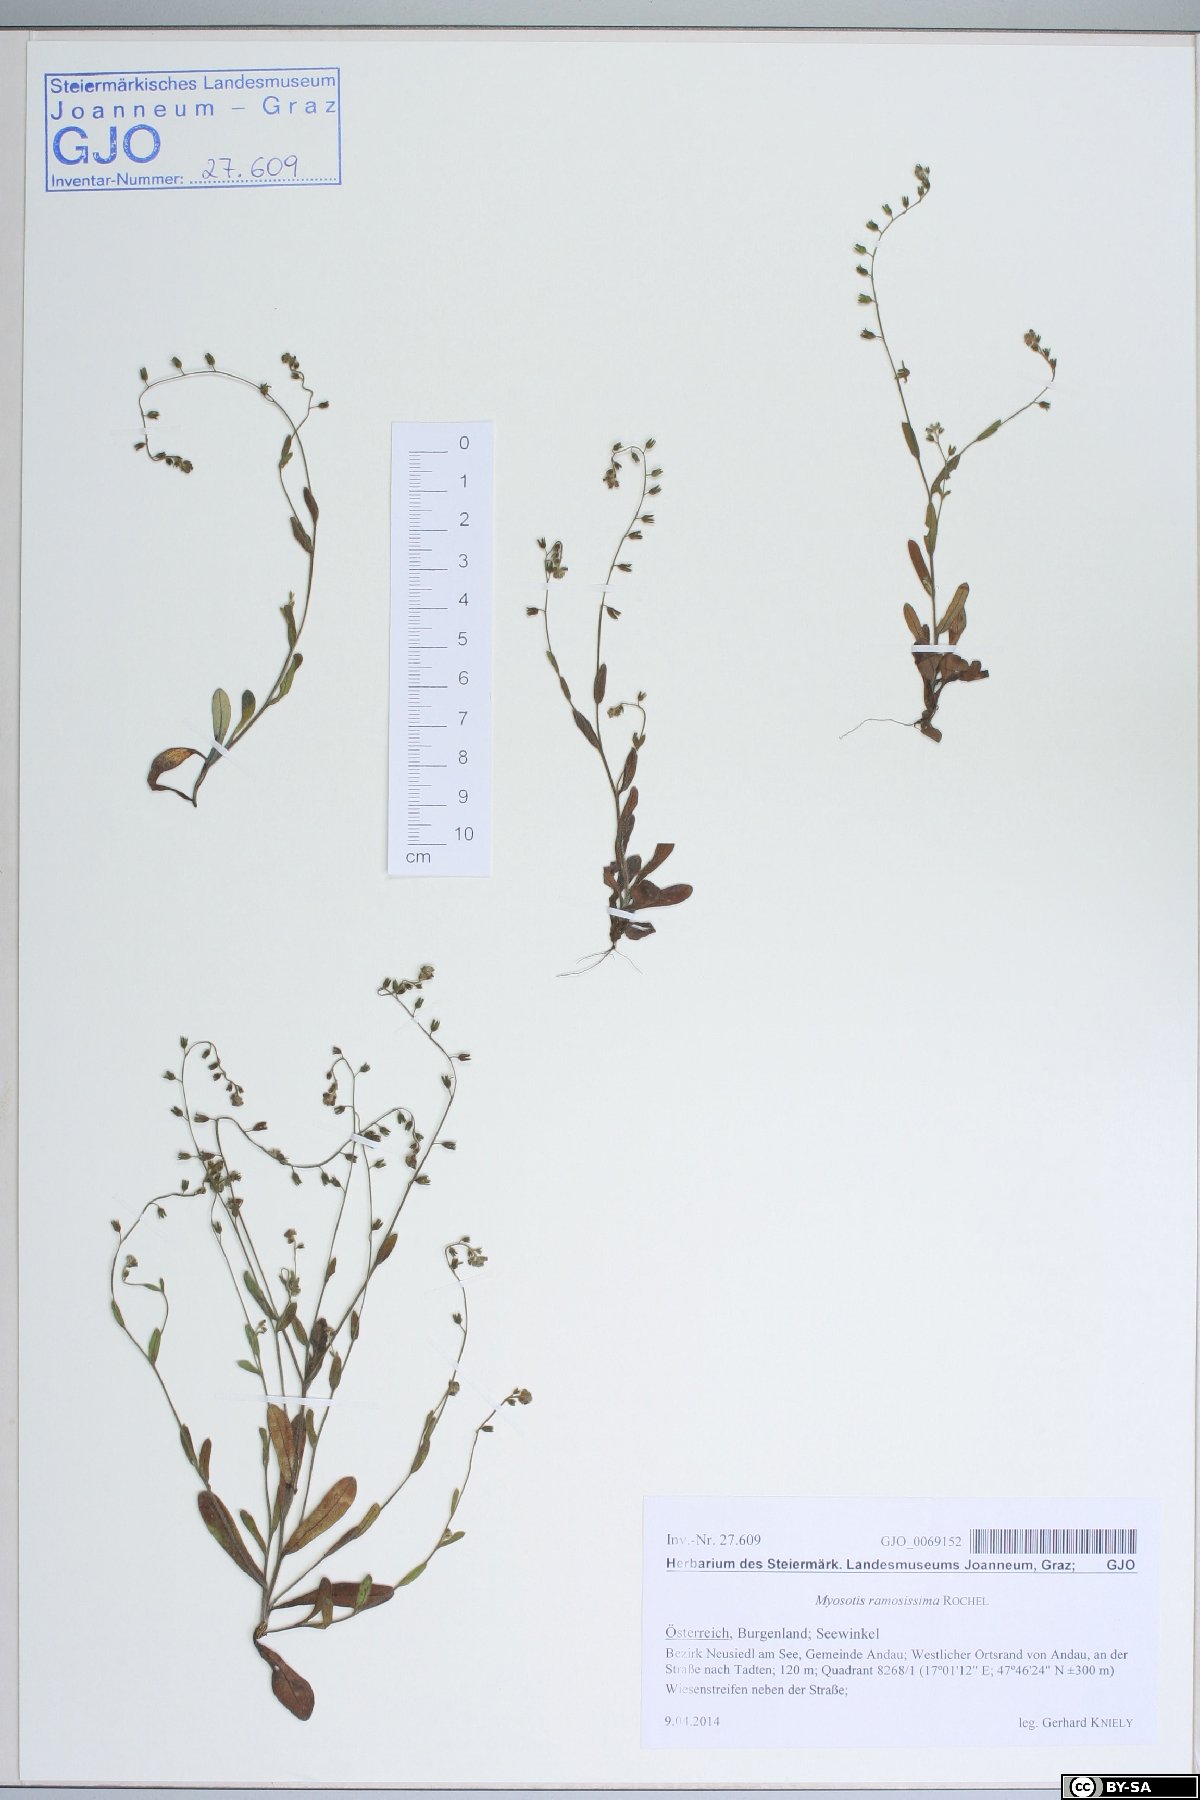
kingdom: Plantae
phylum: Tracheophyta
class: Magnoliopsida
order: Boraginales
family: Boraginaceae
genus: Myosotis
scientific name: Myosotis ramosissima
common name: Early forget-me-not
